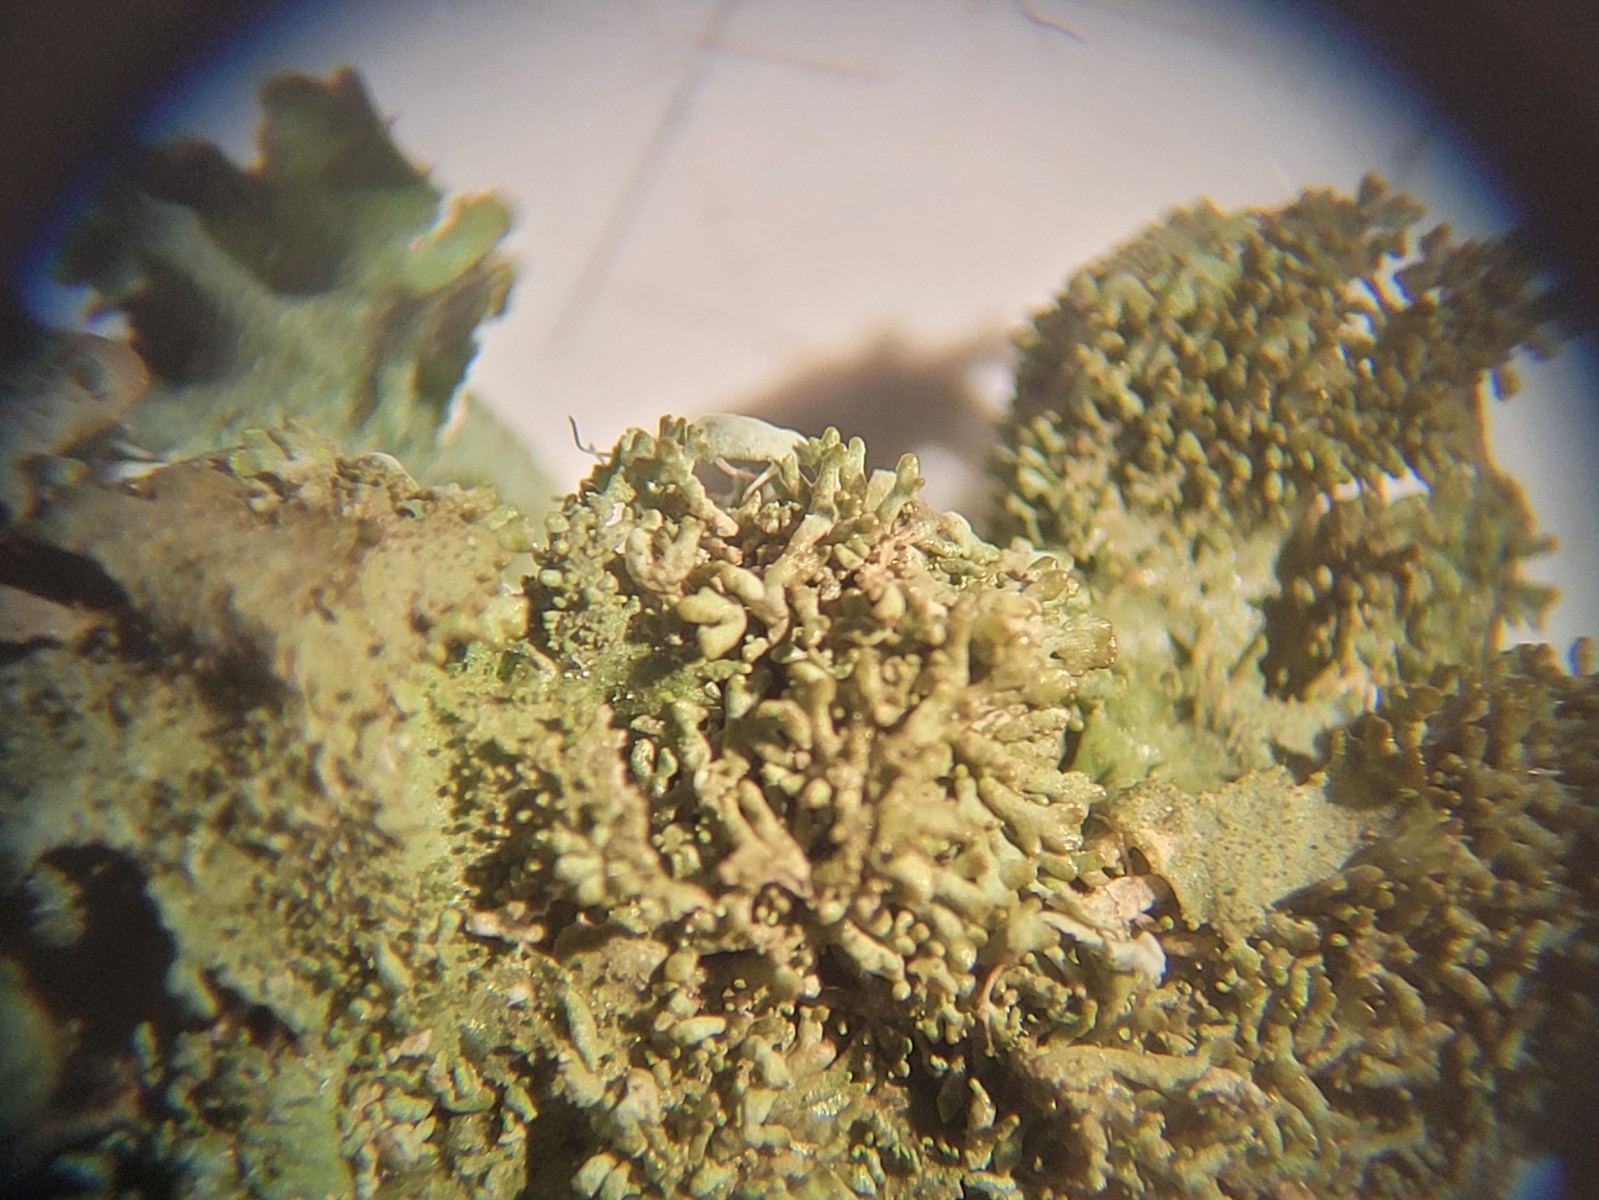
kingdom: Fungi
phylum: Ascomycota
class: Lecanoromycetes
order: Lecanorales
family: Parmeliaceae
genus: Melanohalea
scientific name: Melanohalea exasperatula
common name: kølle-skållav
